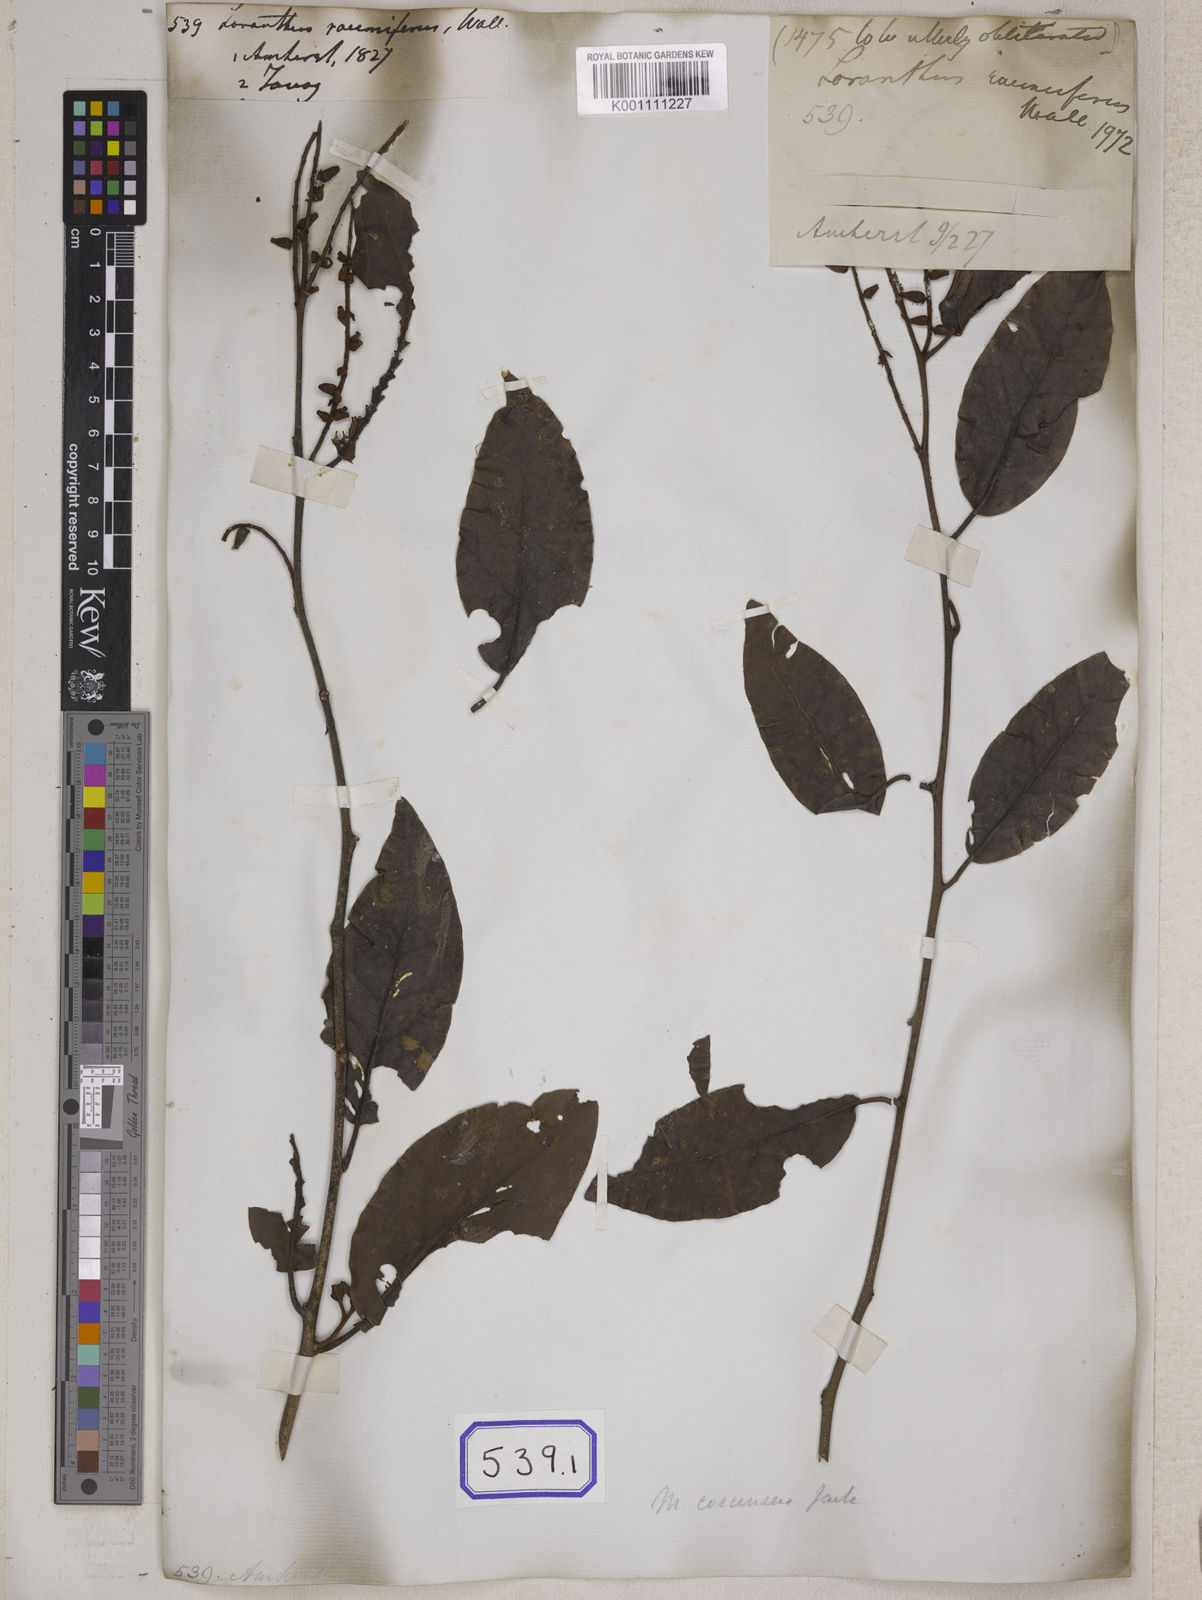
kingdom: Plantae
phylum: Tracheophyta
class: Magnoliopsida
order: Santalales
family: Loranthaceae
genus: Loranthus
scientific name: Loranthus
